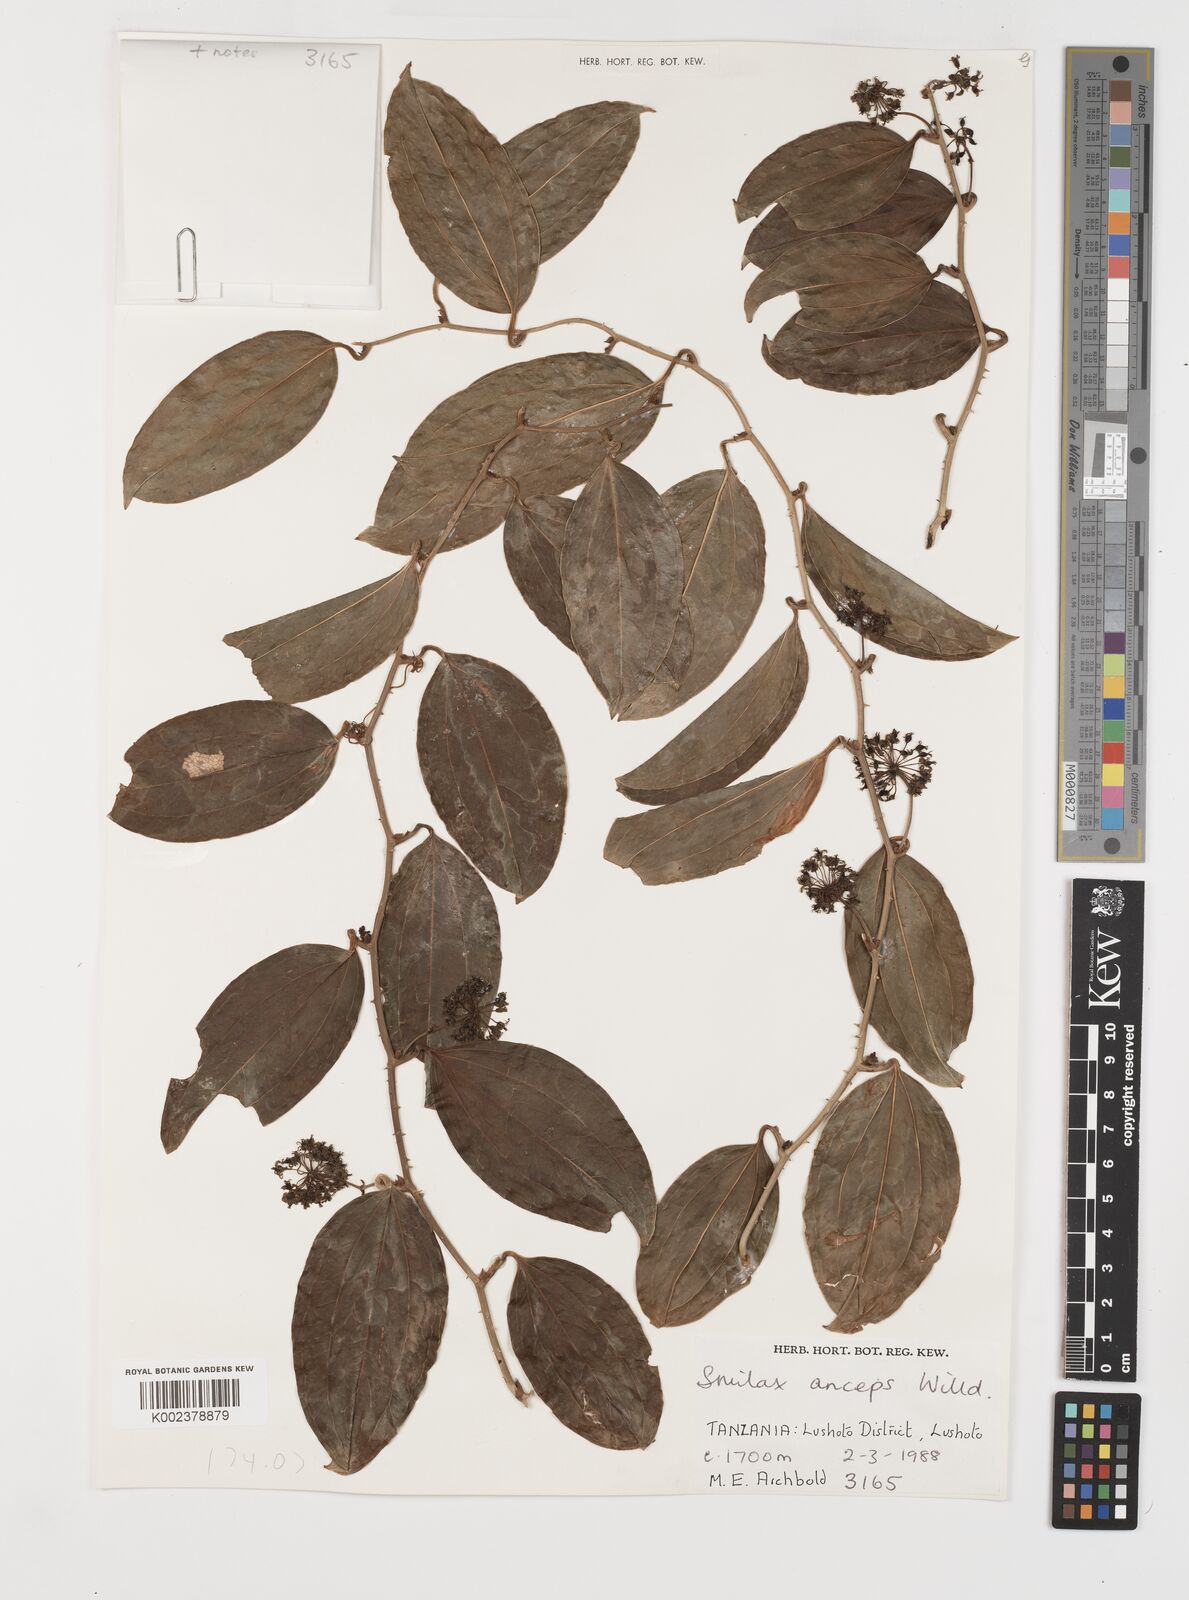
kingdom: Plantae
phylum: Tracheophyta
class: Liliopsida
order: Liliales
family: Smilacaceae
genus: Smilax
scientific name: Smilax anceps
